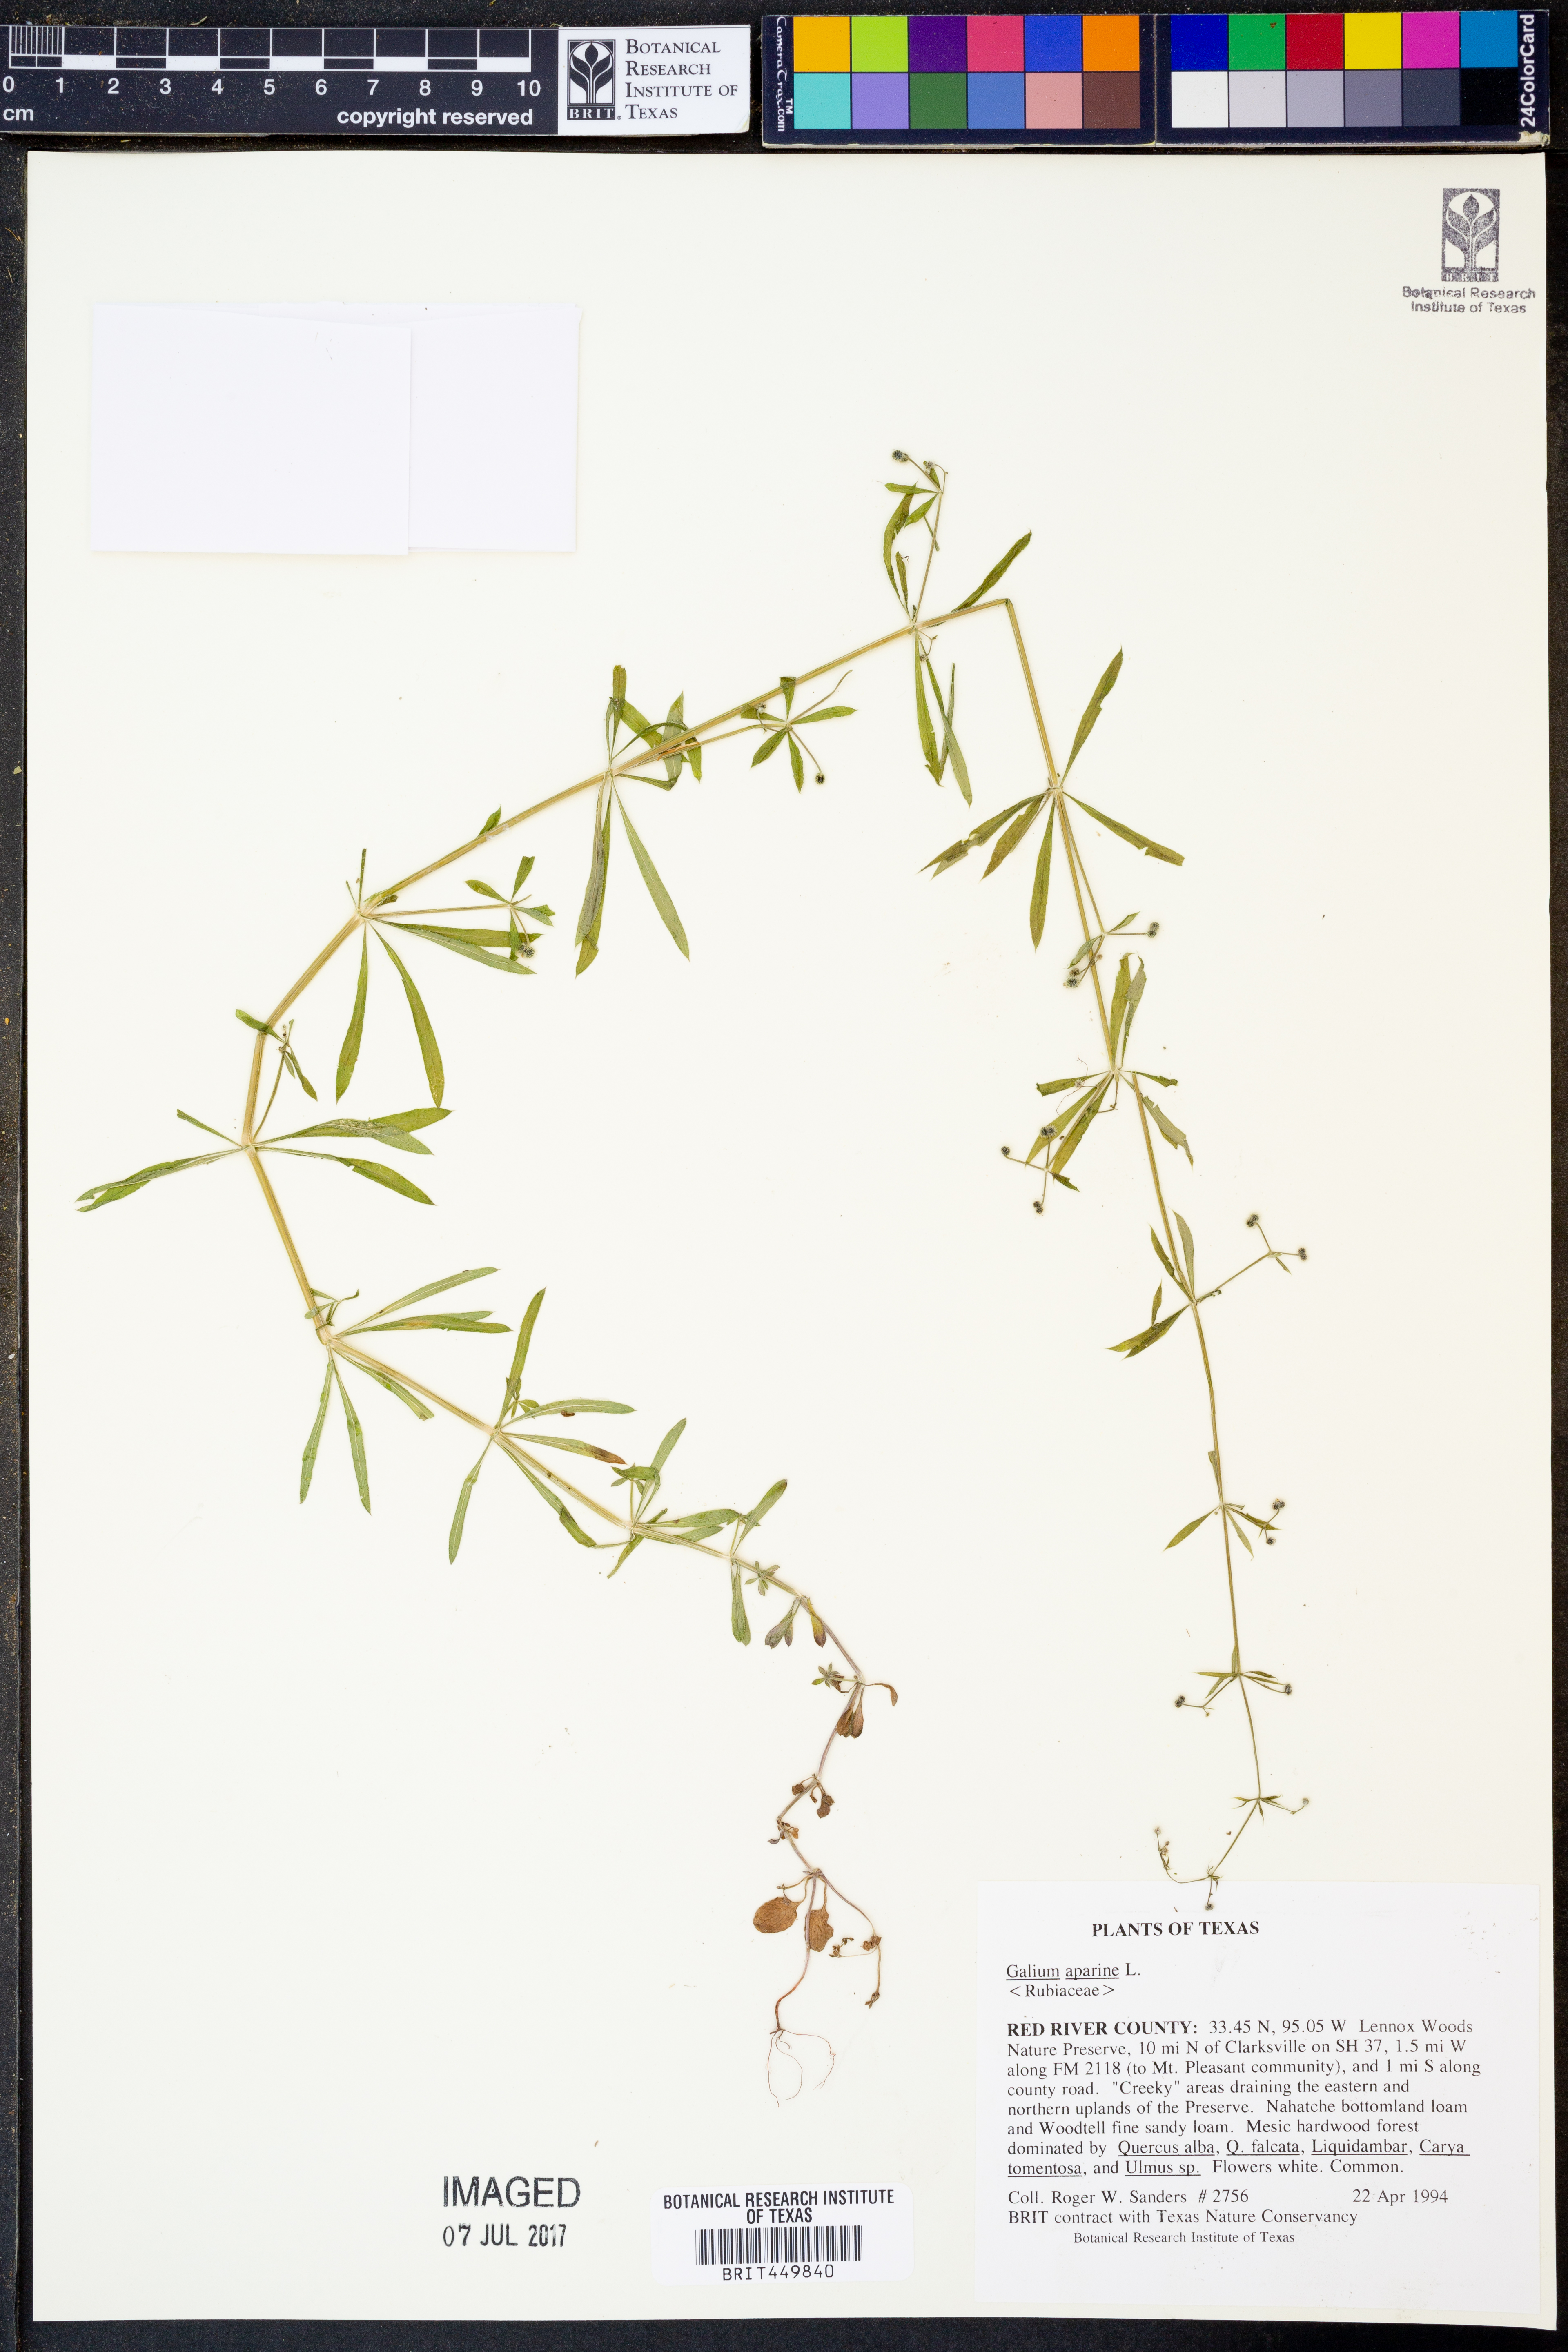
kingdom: Plantae
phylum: Tracheophyta
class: Magnoliopsida
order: Gentianales
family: Rubiaceae
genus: Galium
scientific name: Galium aparine
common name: Cleavers
